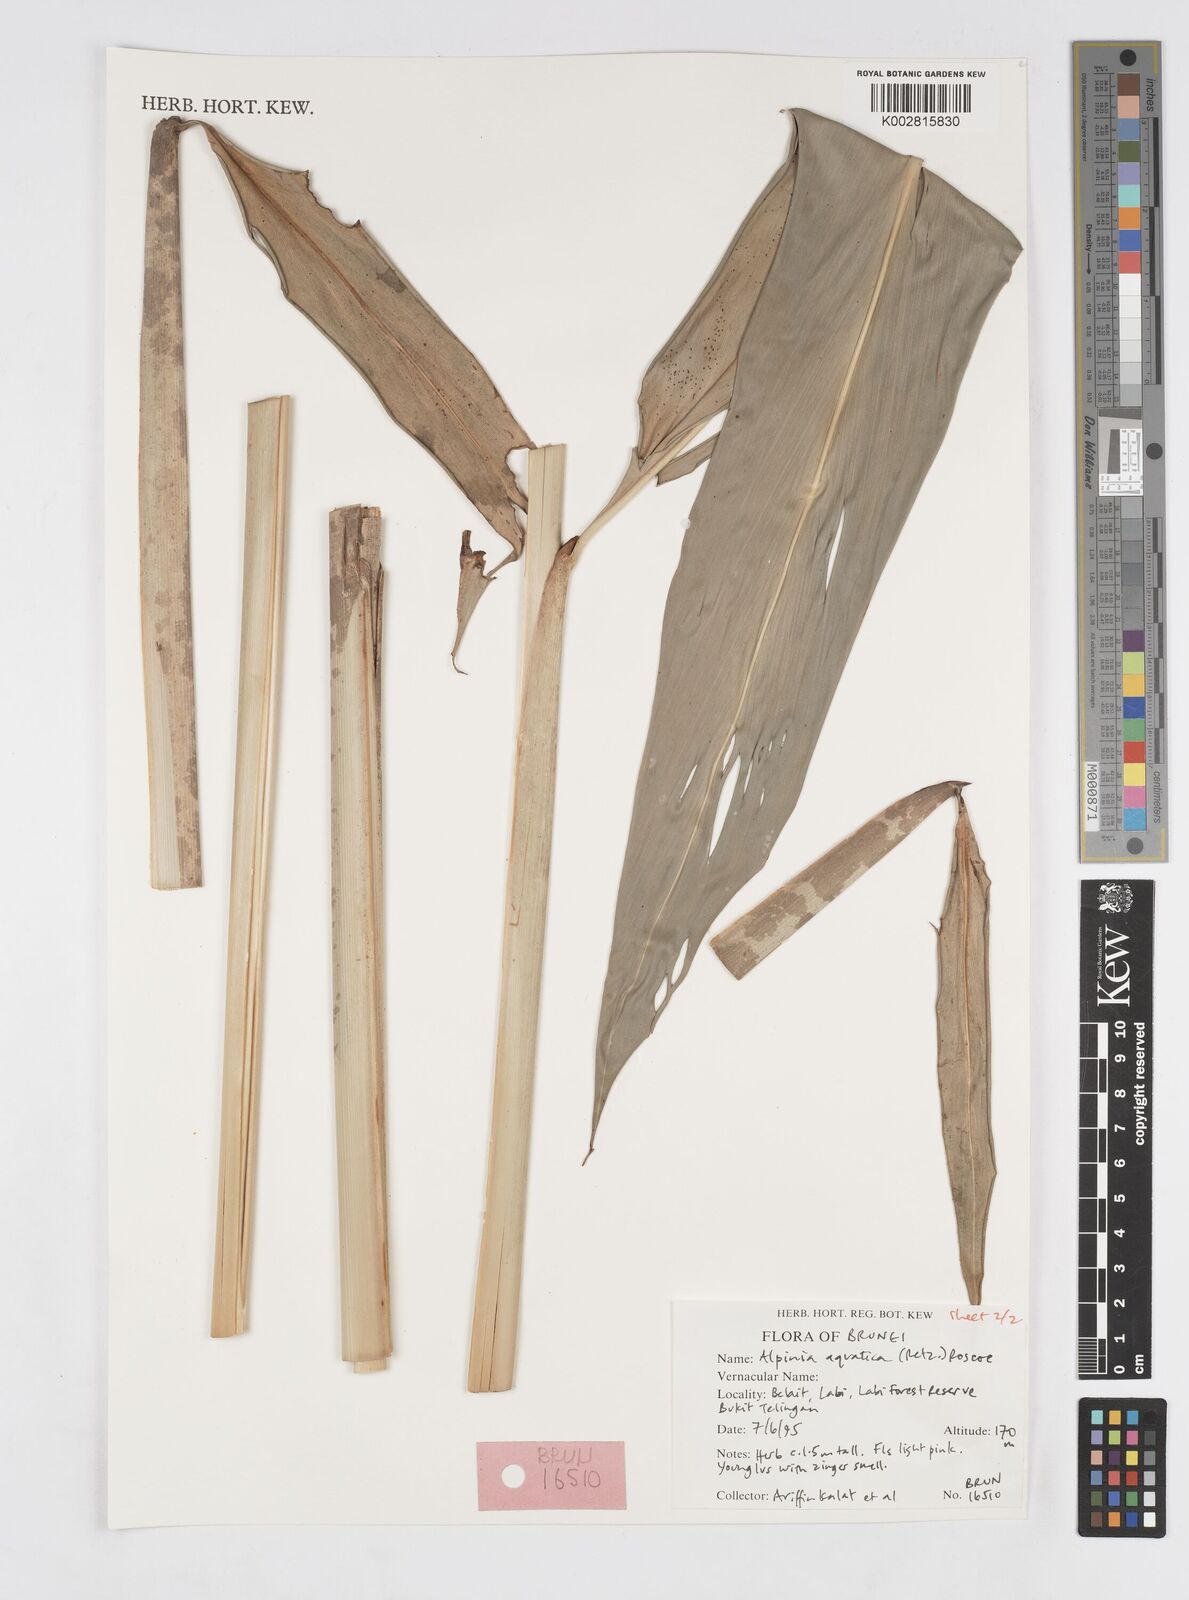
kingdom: Plantae
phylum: Tracheophyta
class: Liliopsida
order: Zingiberales
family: Zingiberaceae
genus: Alpinia
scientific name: Alpinia aquatica
